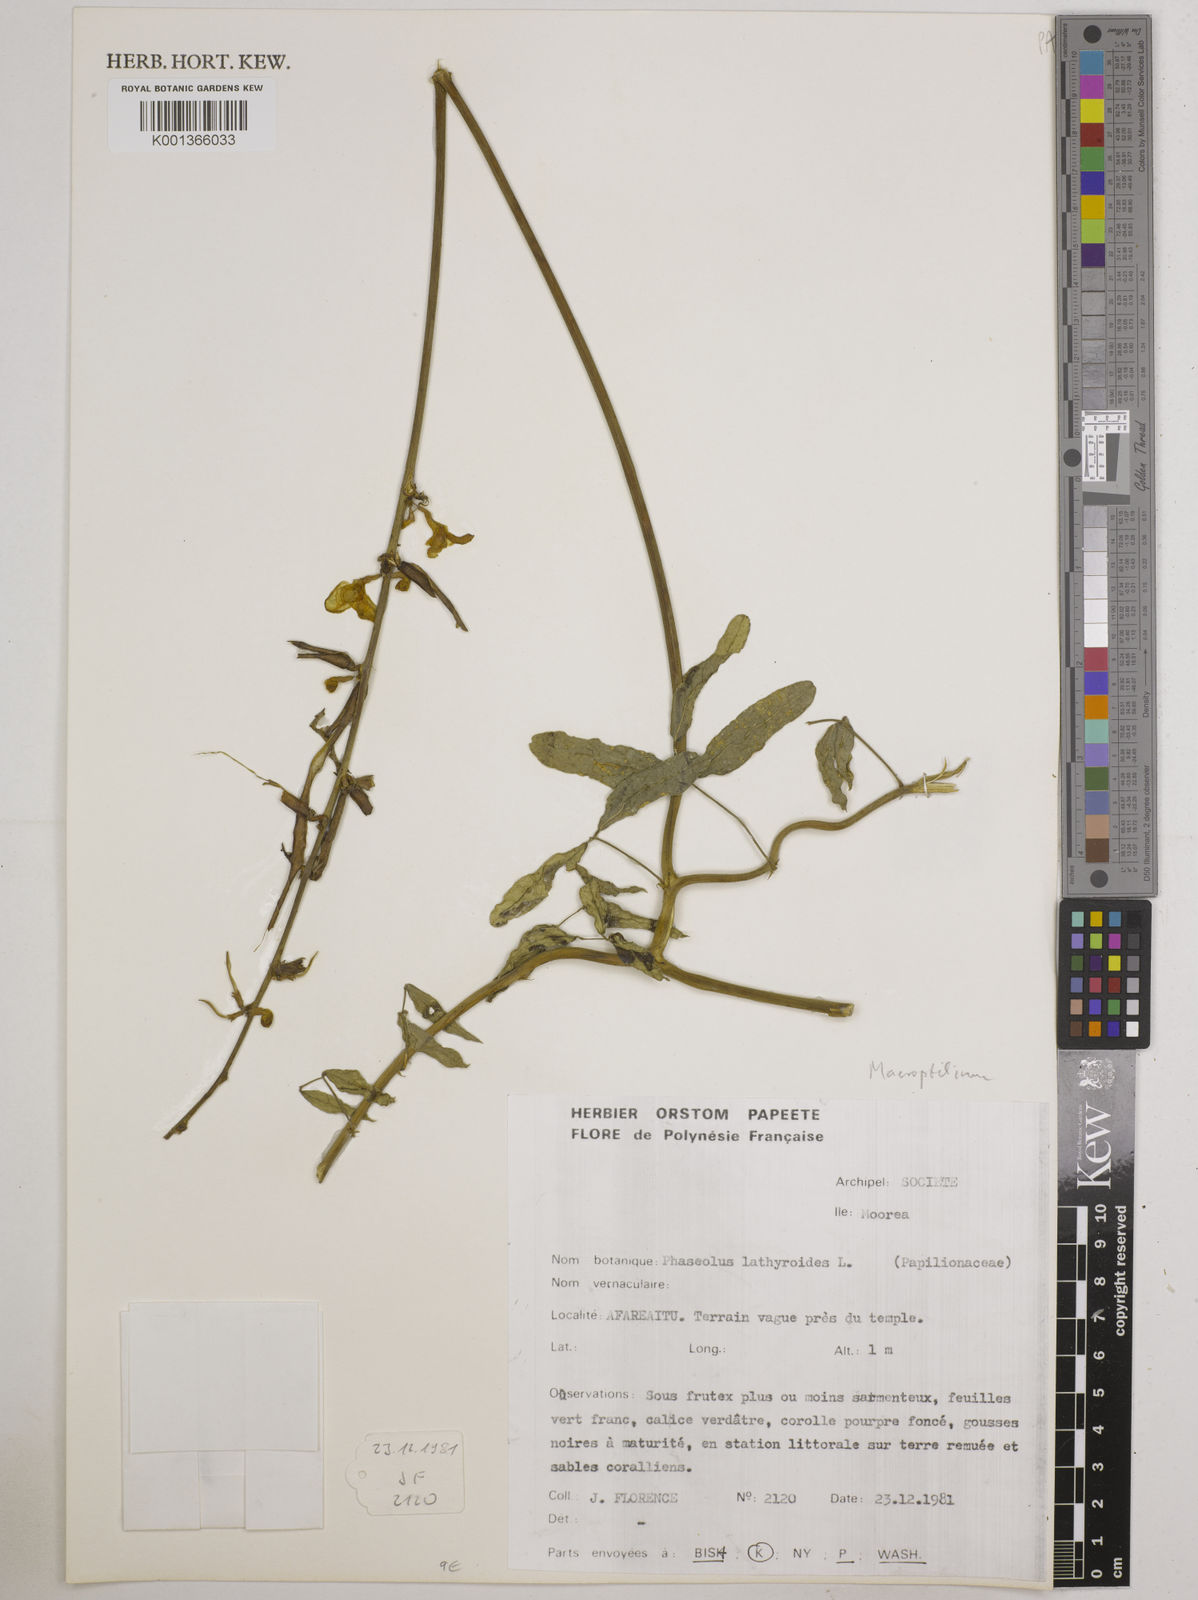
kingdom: Plantae
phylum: Tracheophyta
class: Magnoliopsida
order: Fabales
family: Fabaceae
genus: Macroptilium
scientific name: Macroptilium lathyroides
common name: Wild bushbean
